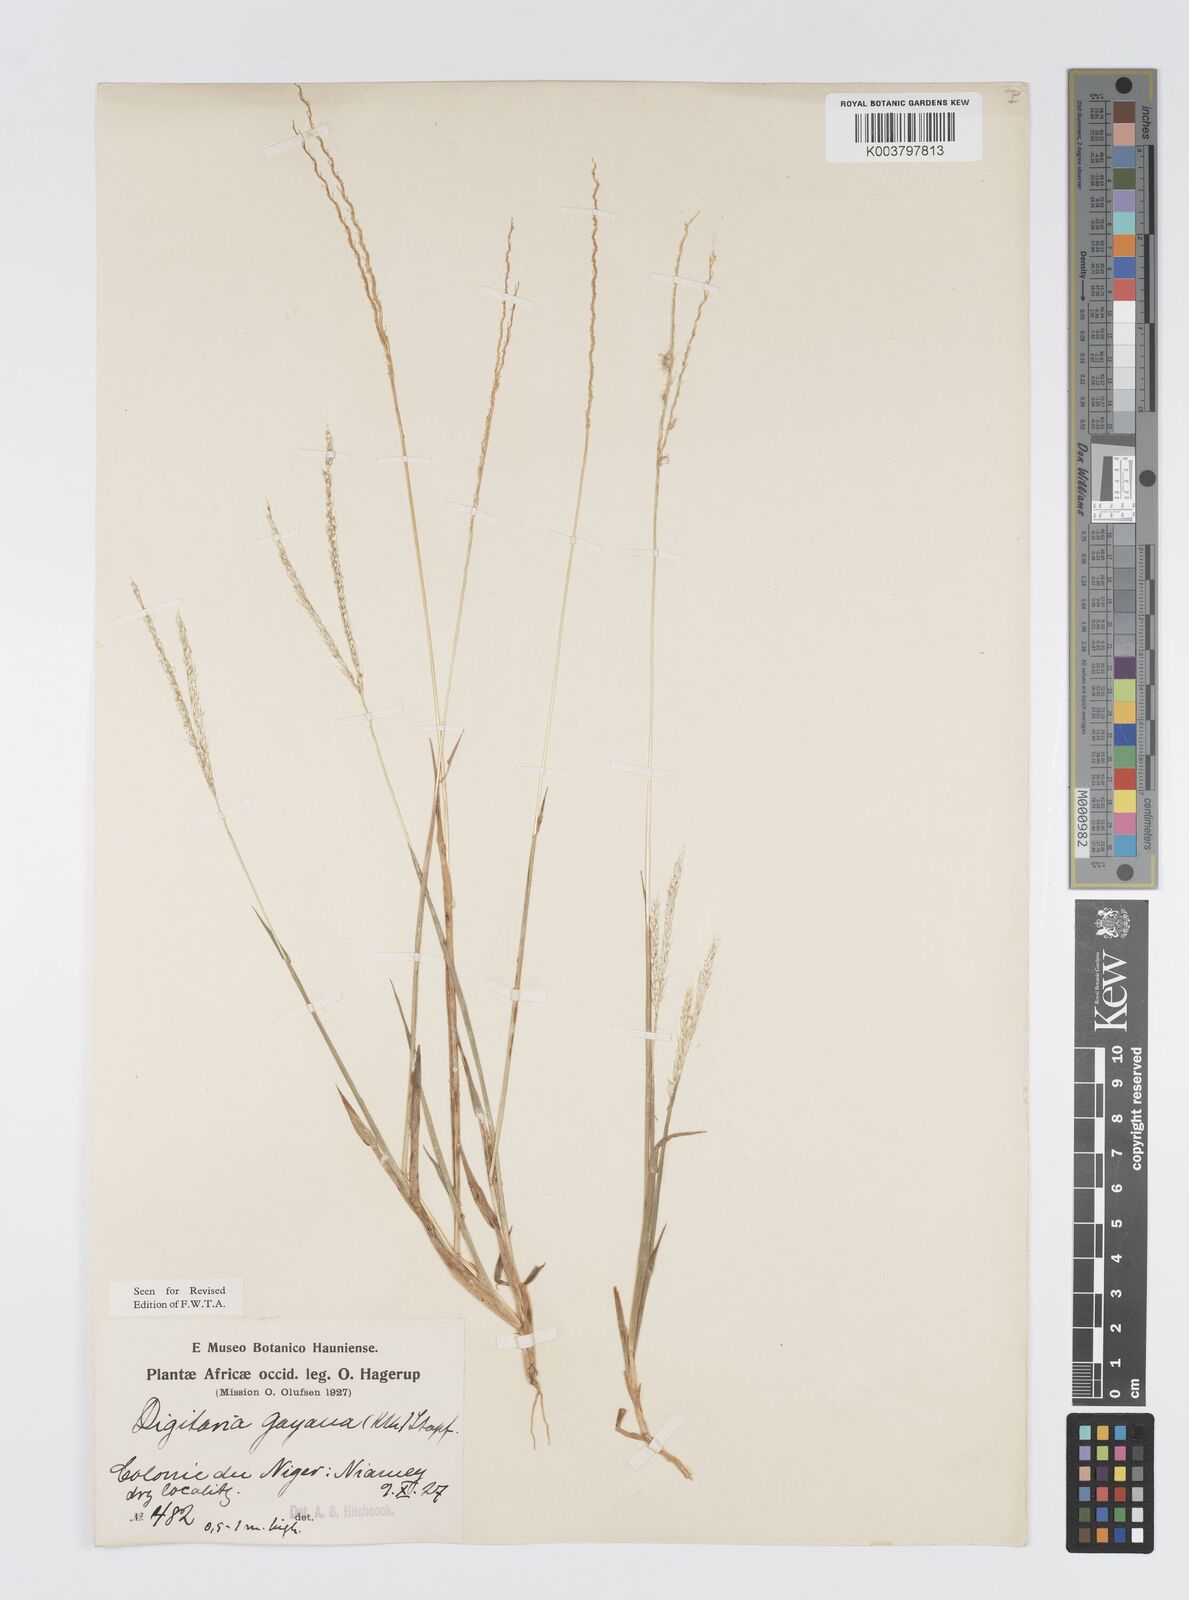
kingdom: Plantae
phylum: Tracheophyta
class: Liliopsida
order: Poales
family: Poaceae
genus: Digitaria
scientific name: Digitaria gayana
